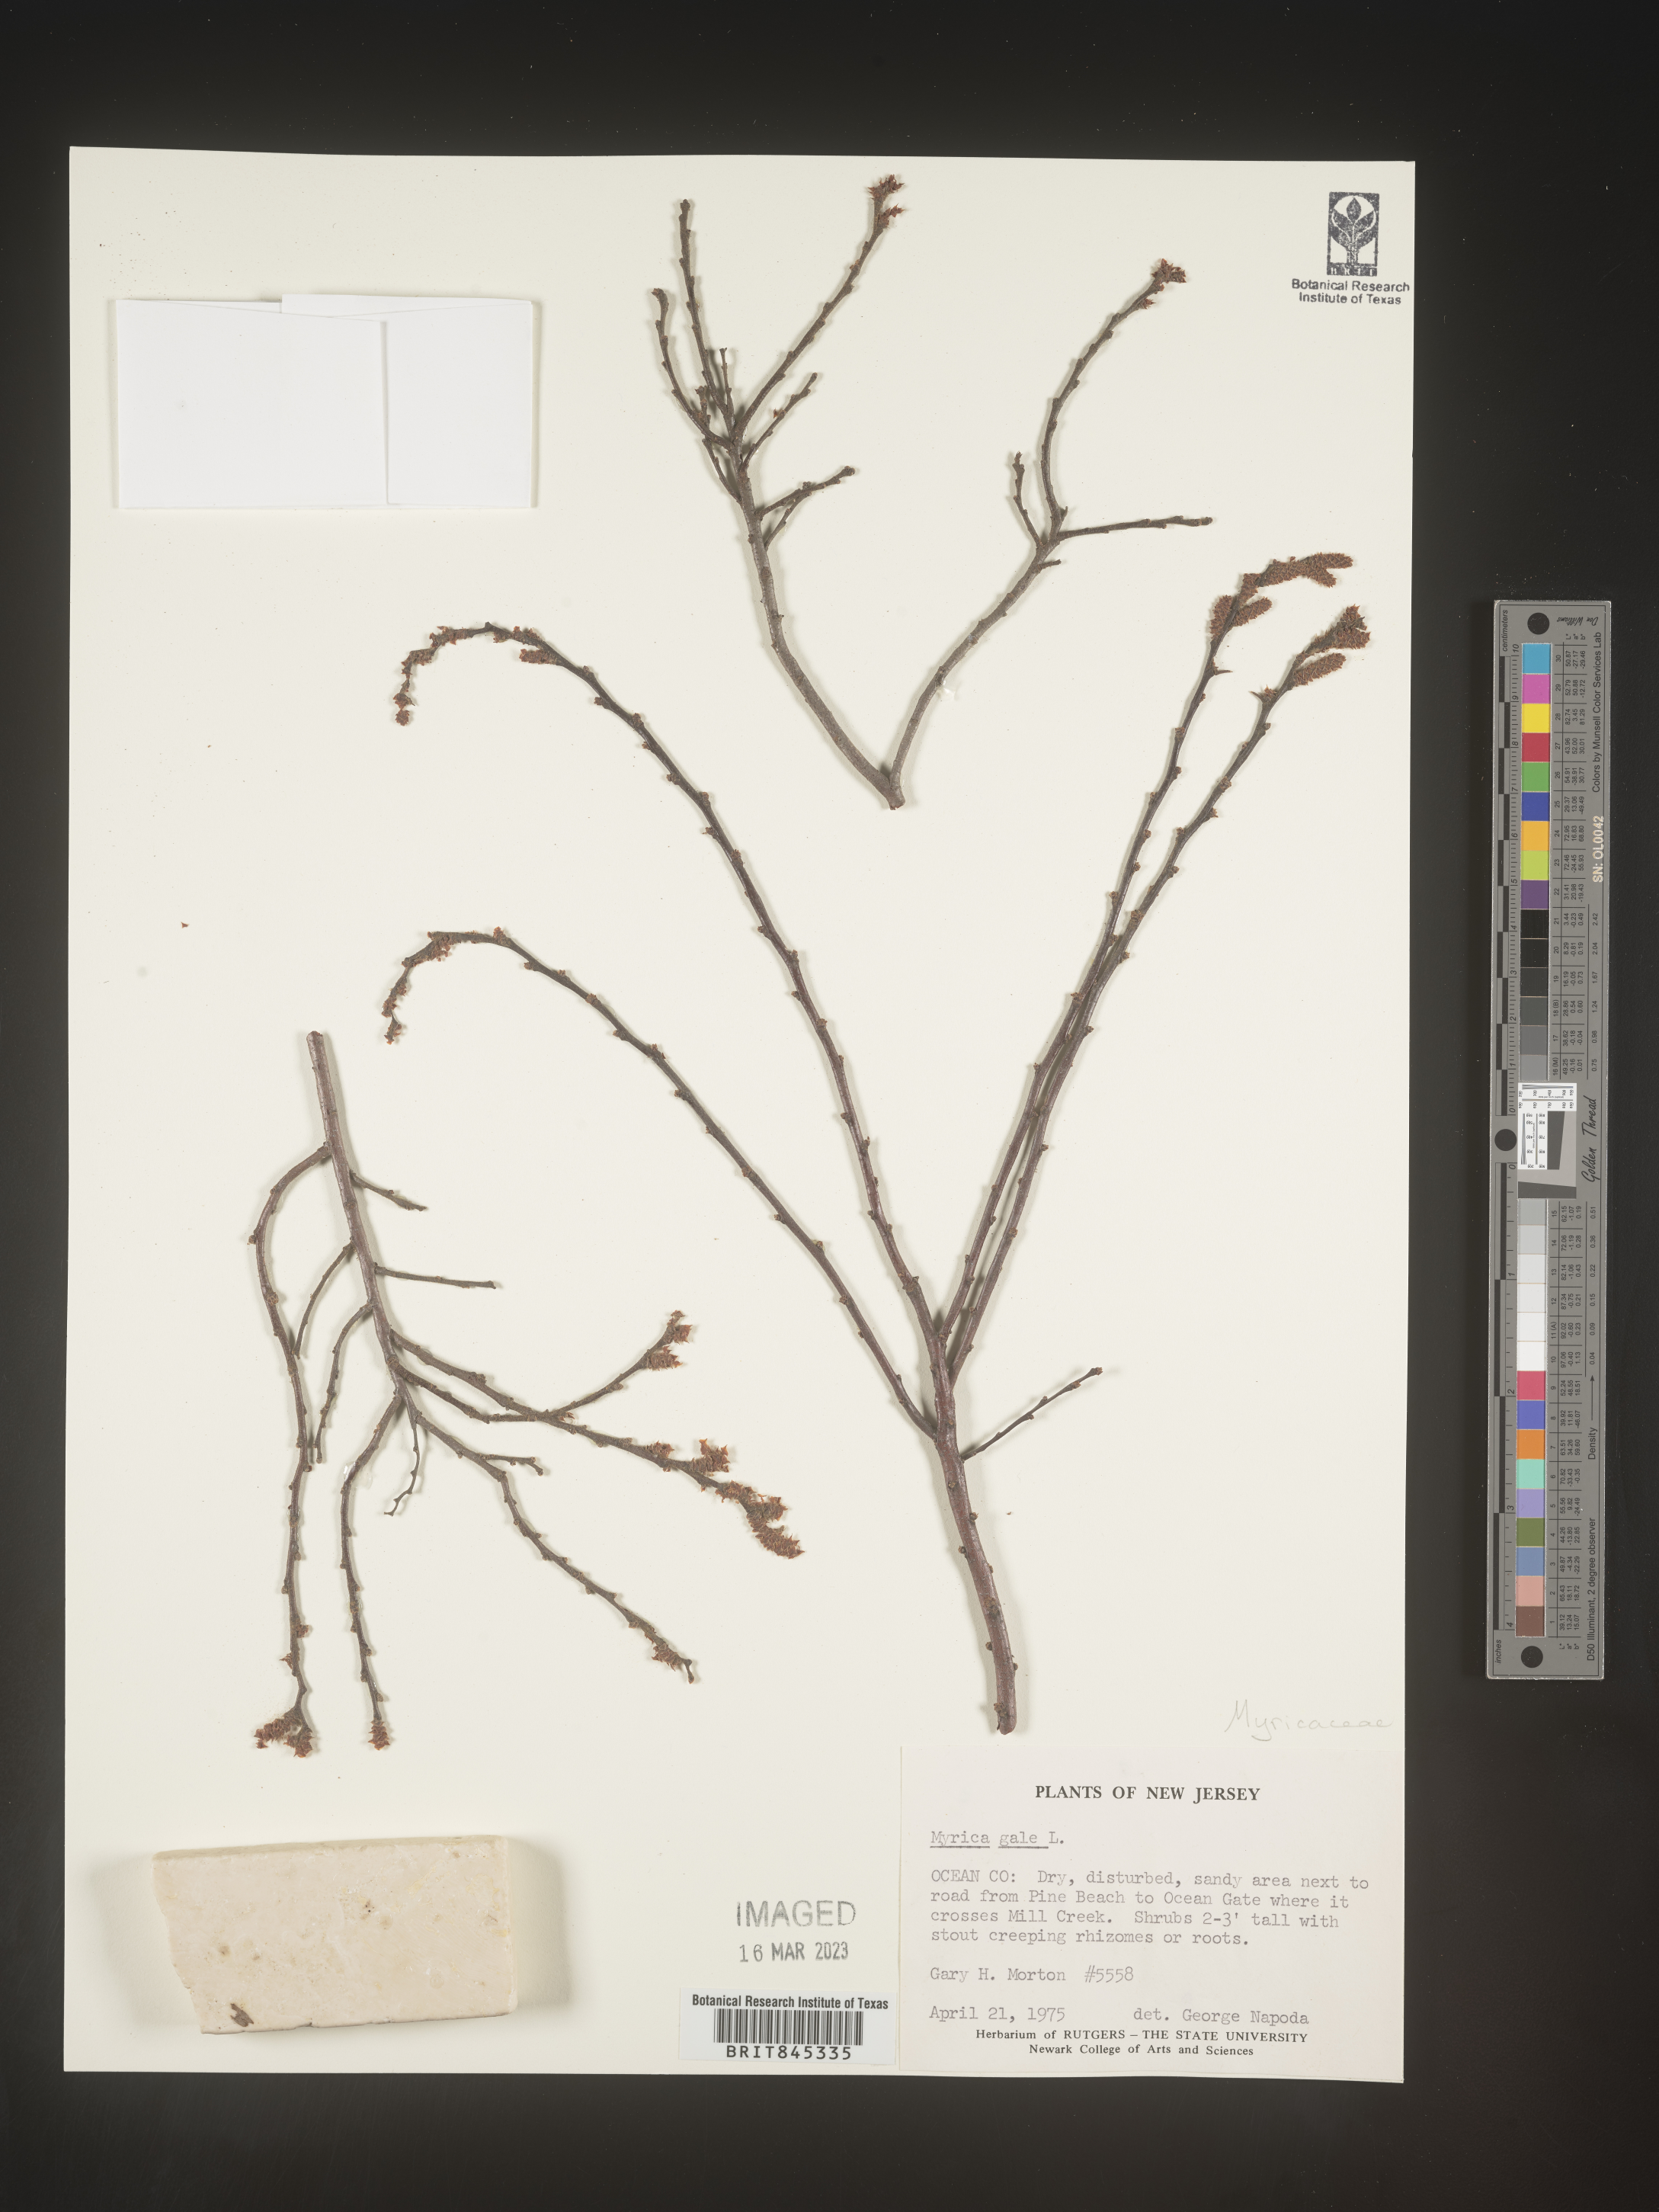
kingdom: Plantae
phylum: Tracheophyta
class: Magnoliopsida
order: Fagales
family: Myricaceae
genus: Myrica
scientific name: Myrica gale
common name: Sweet gale
